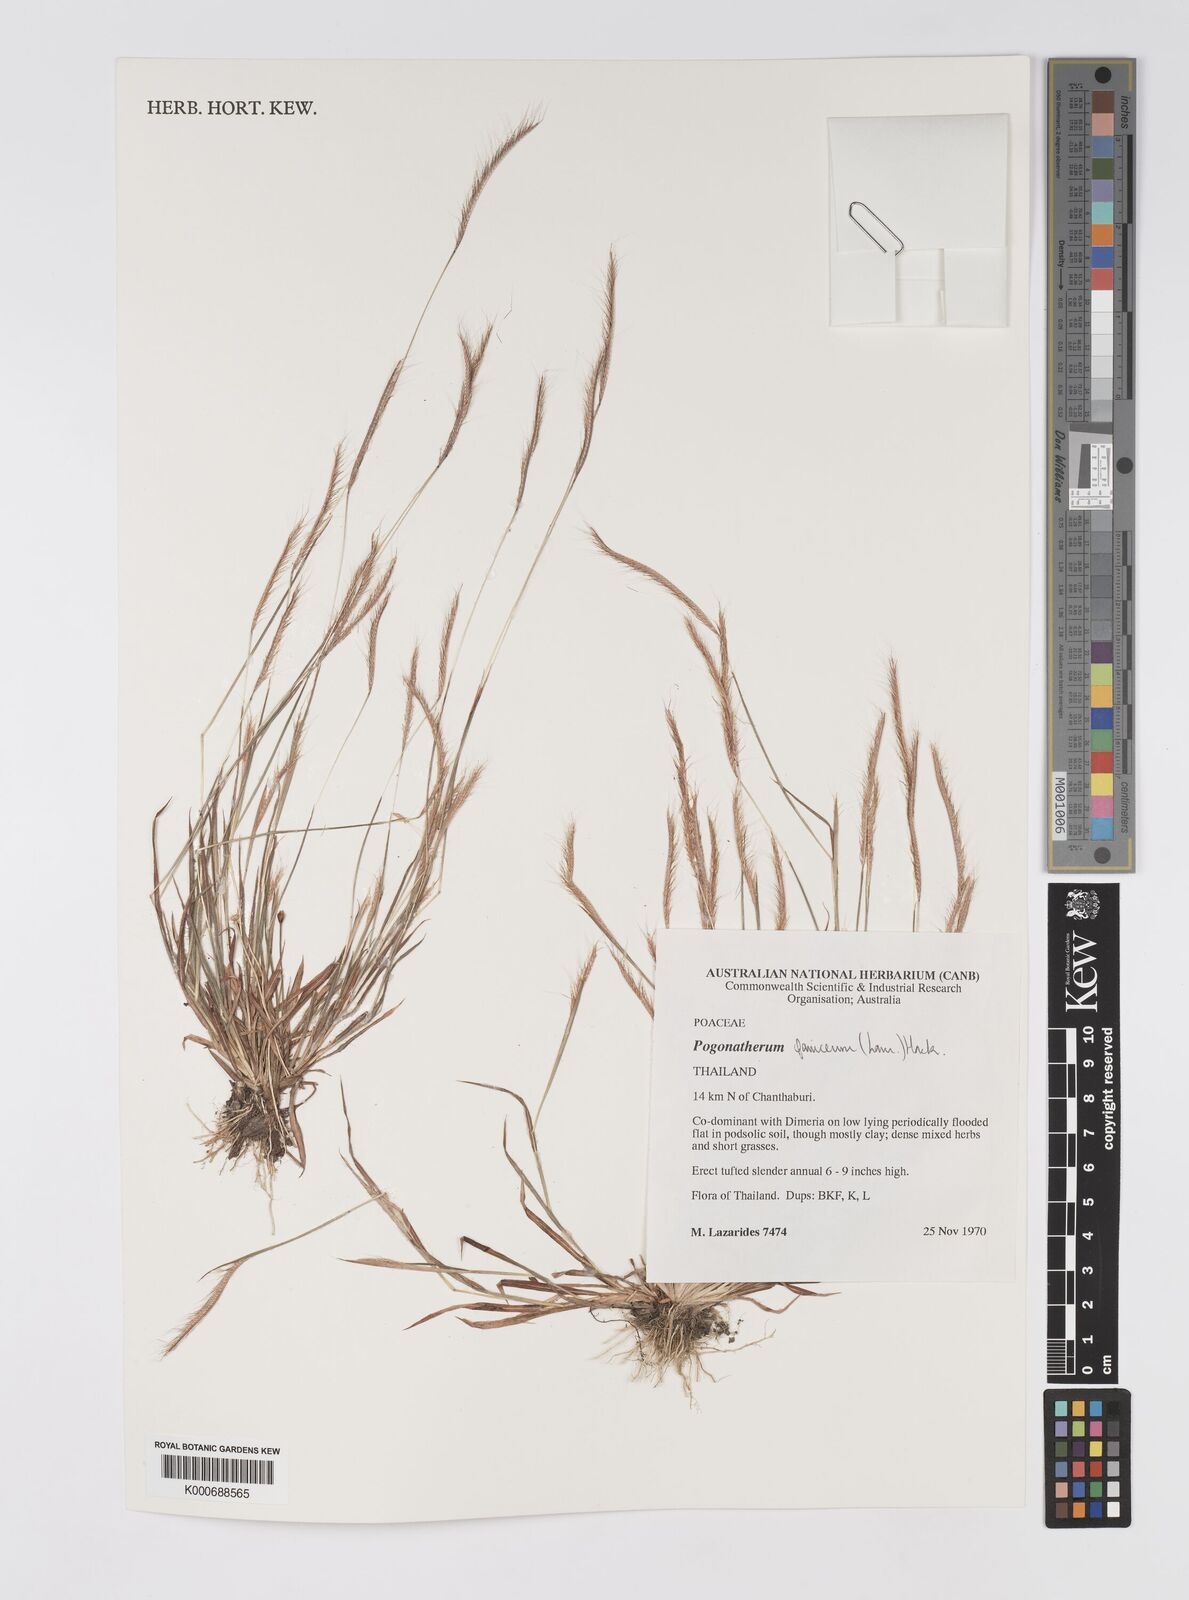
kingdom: Plantae
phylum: Tracheophyta
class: Liliopsida
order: Poales
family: Poaceae
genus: Pogonatherum
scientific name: Pogonatherum crinitum
